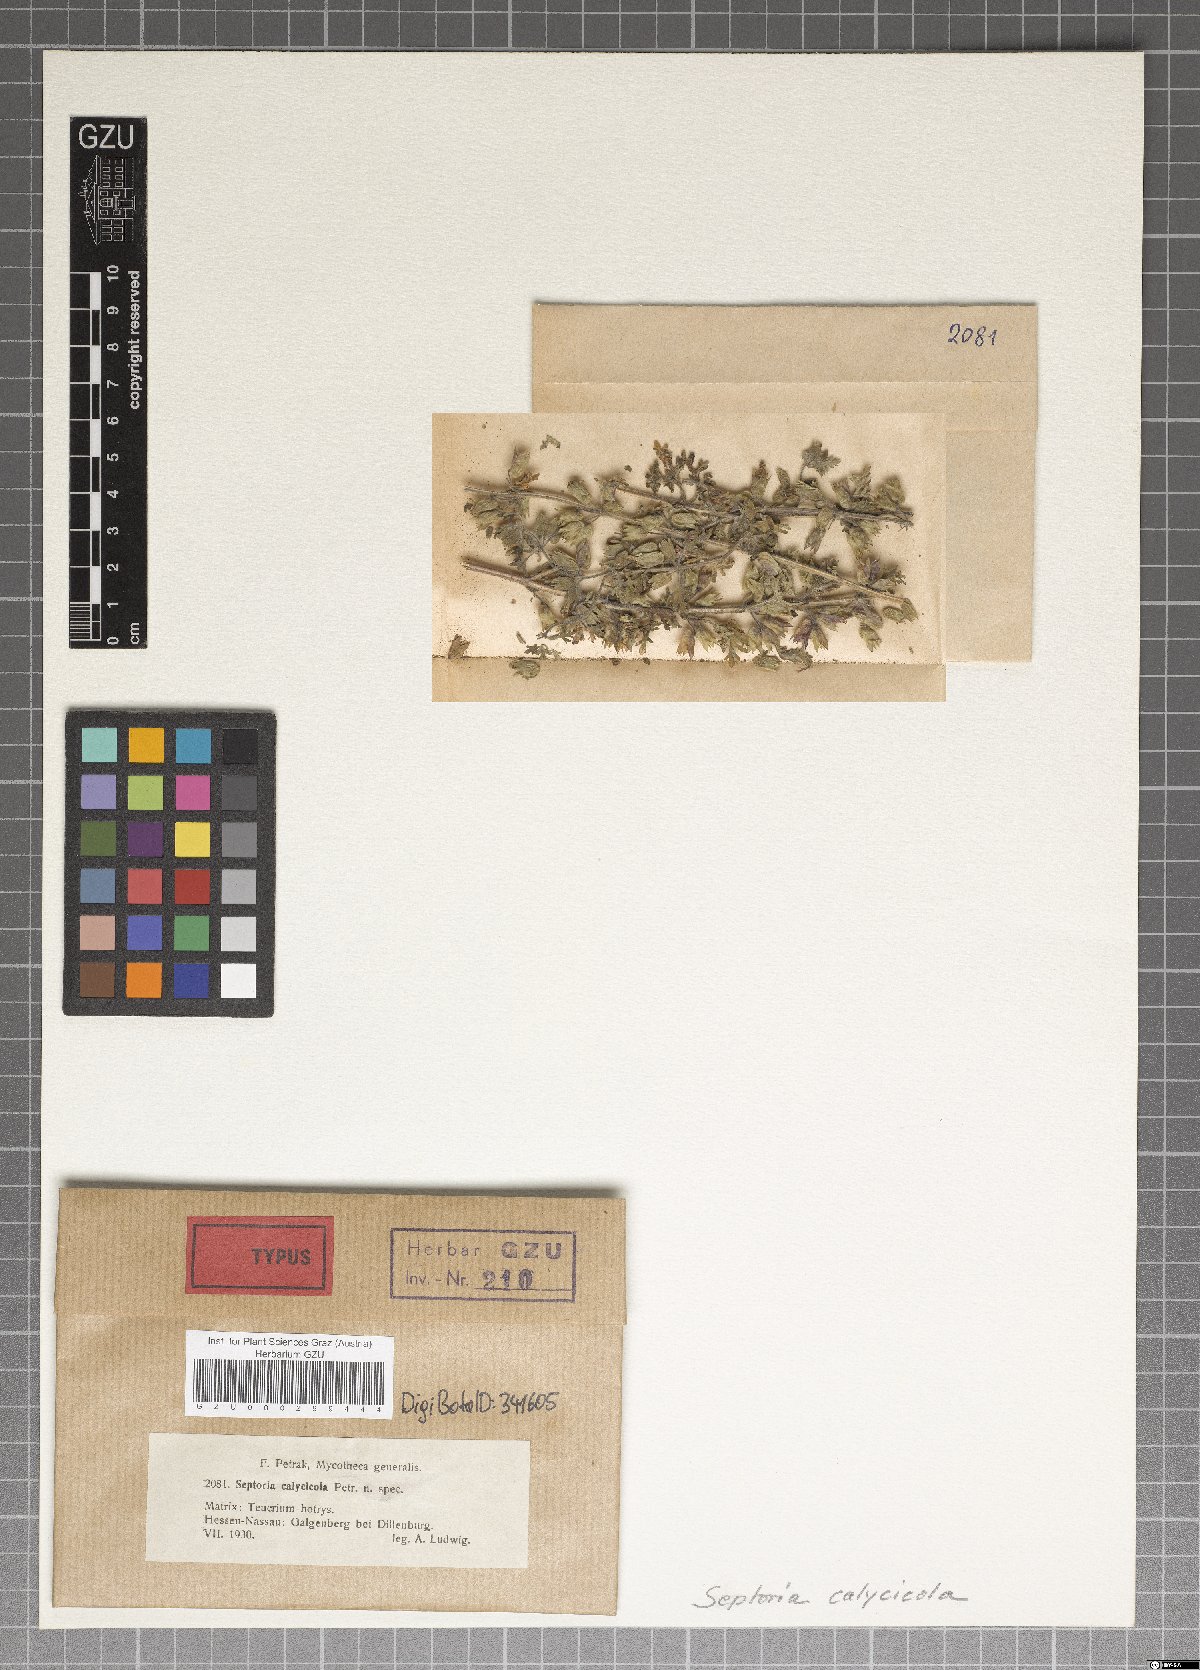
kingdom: Fungi
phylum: Ascomycota
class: Dothideomycetes
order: Mycosphaerellales
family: Mycosphaerellaceae
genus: Septoria
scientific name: Septoria
